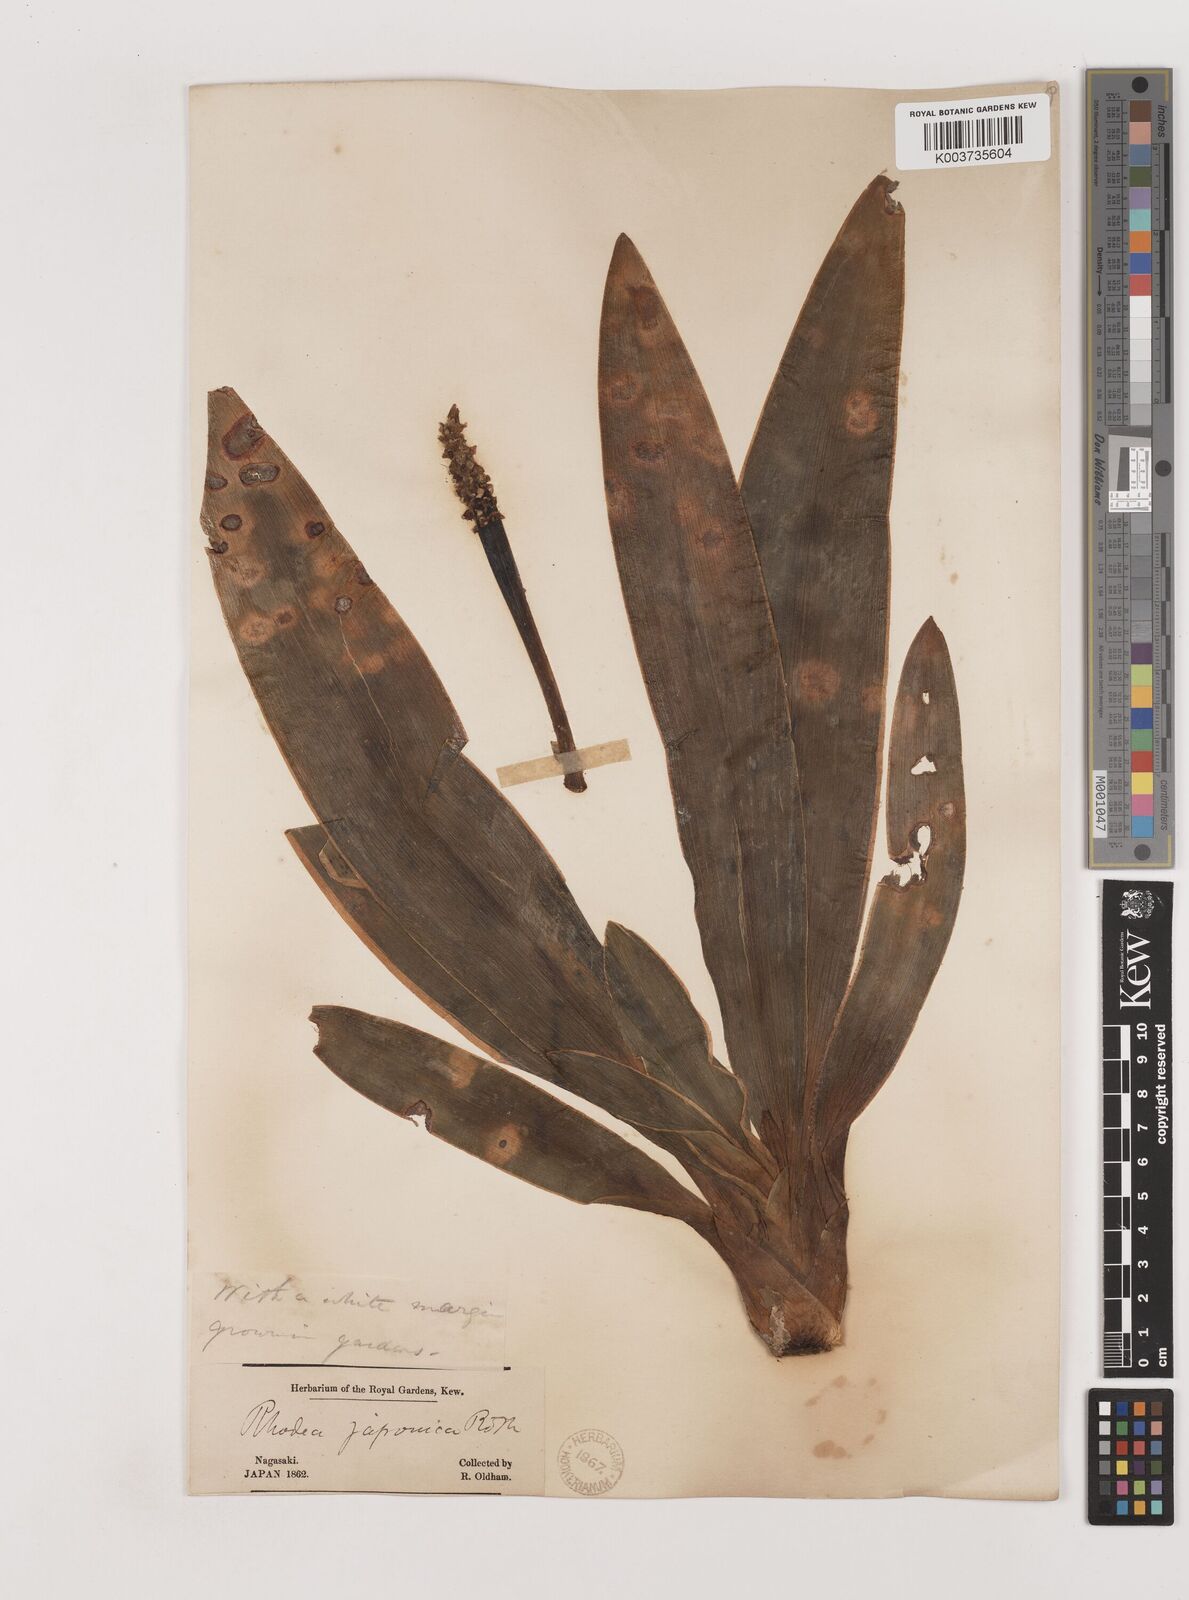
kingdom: Plantae
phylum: Tracheophyta
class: Liliopsida
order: Asparagales
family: Asparagaceae
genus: Rohdea
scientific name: Rohdea japonica
